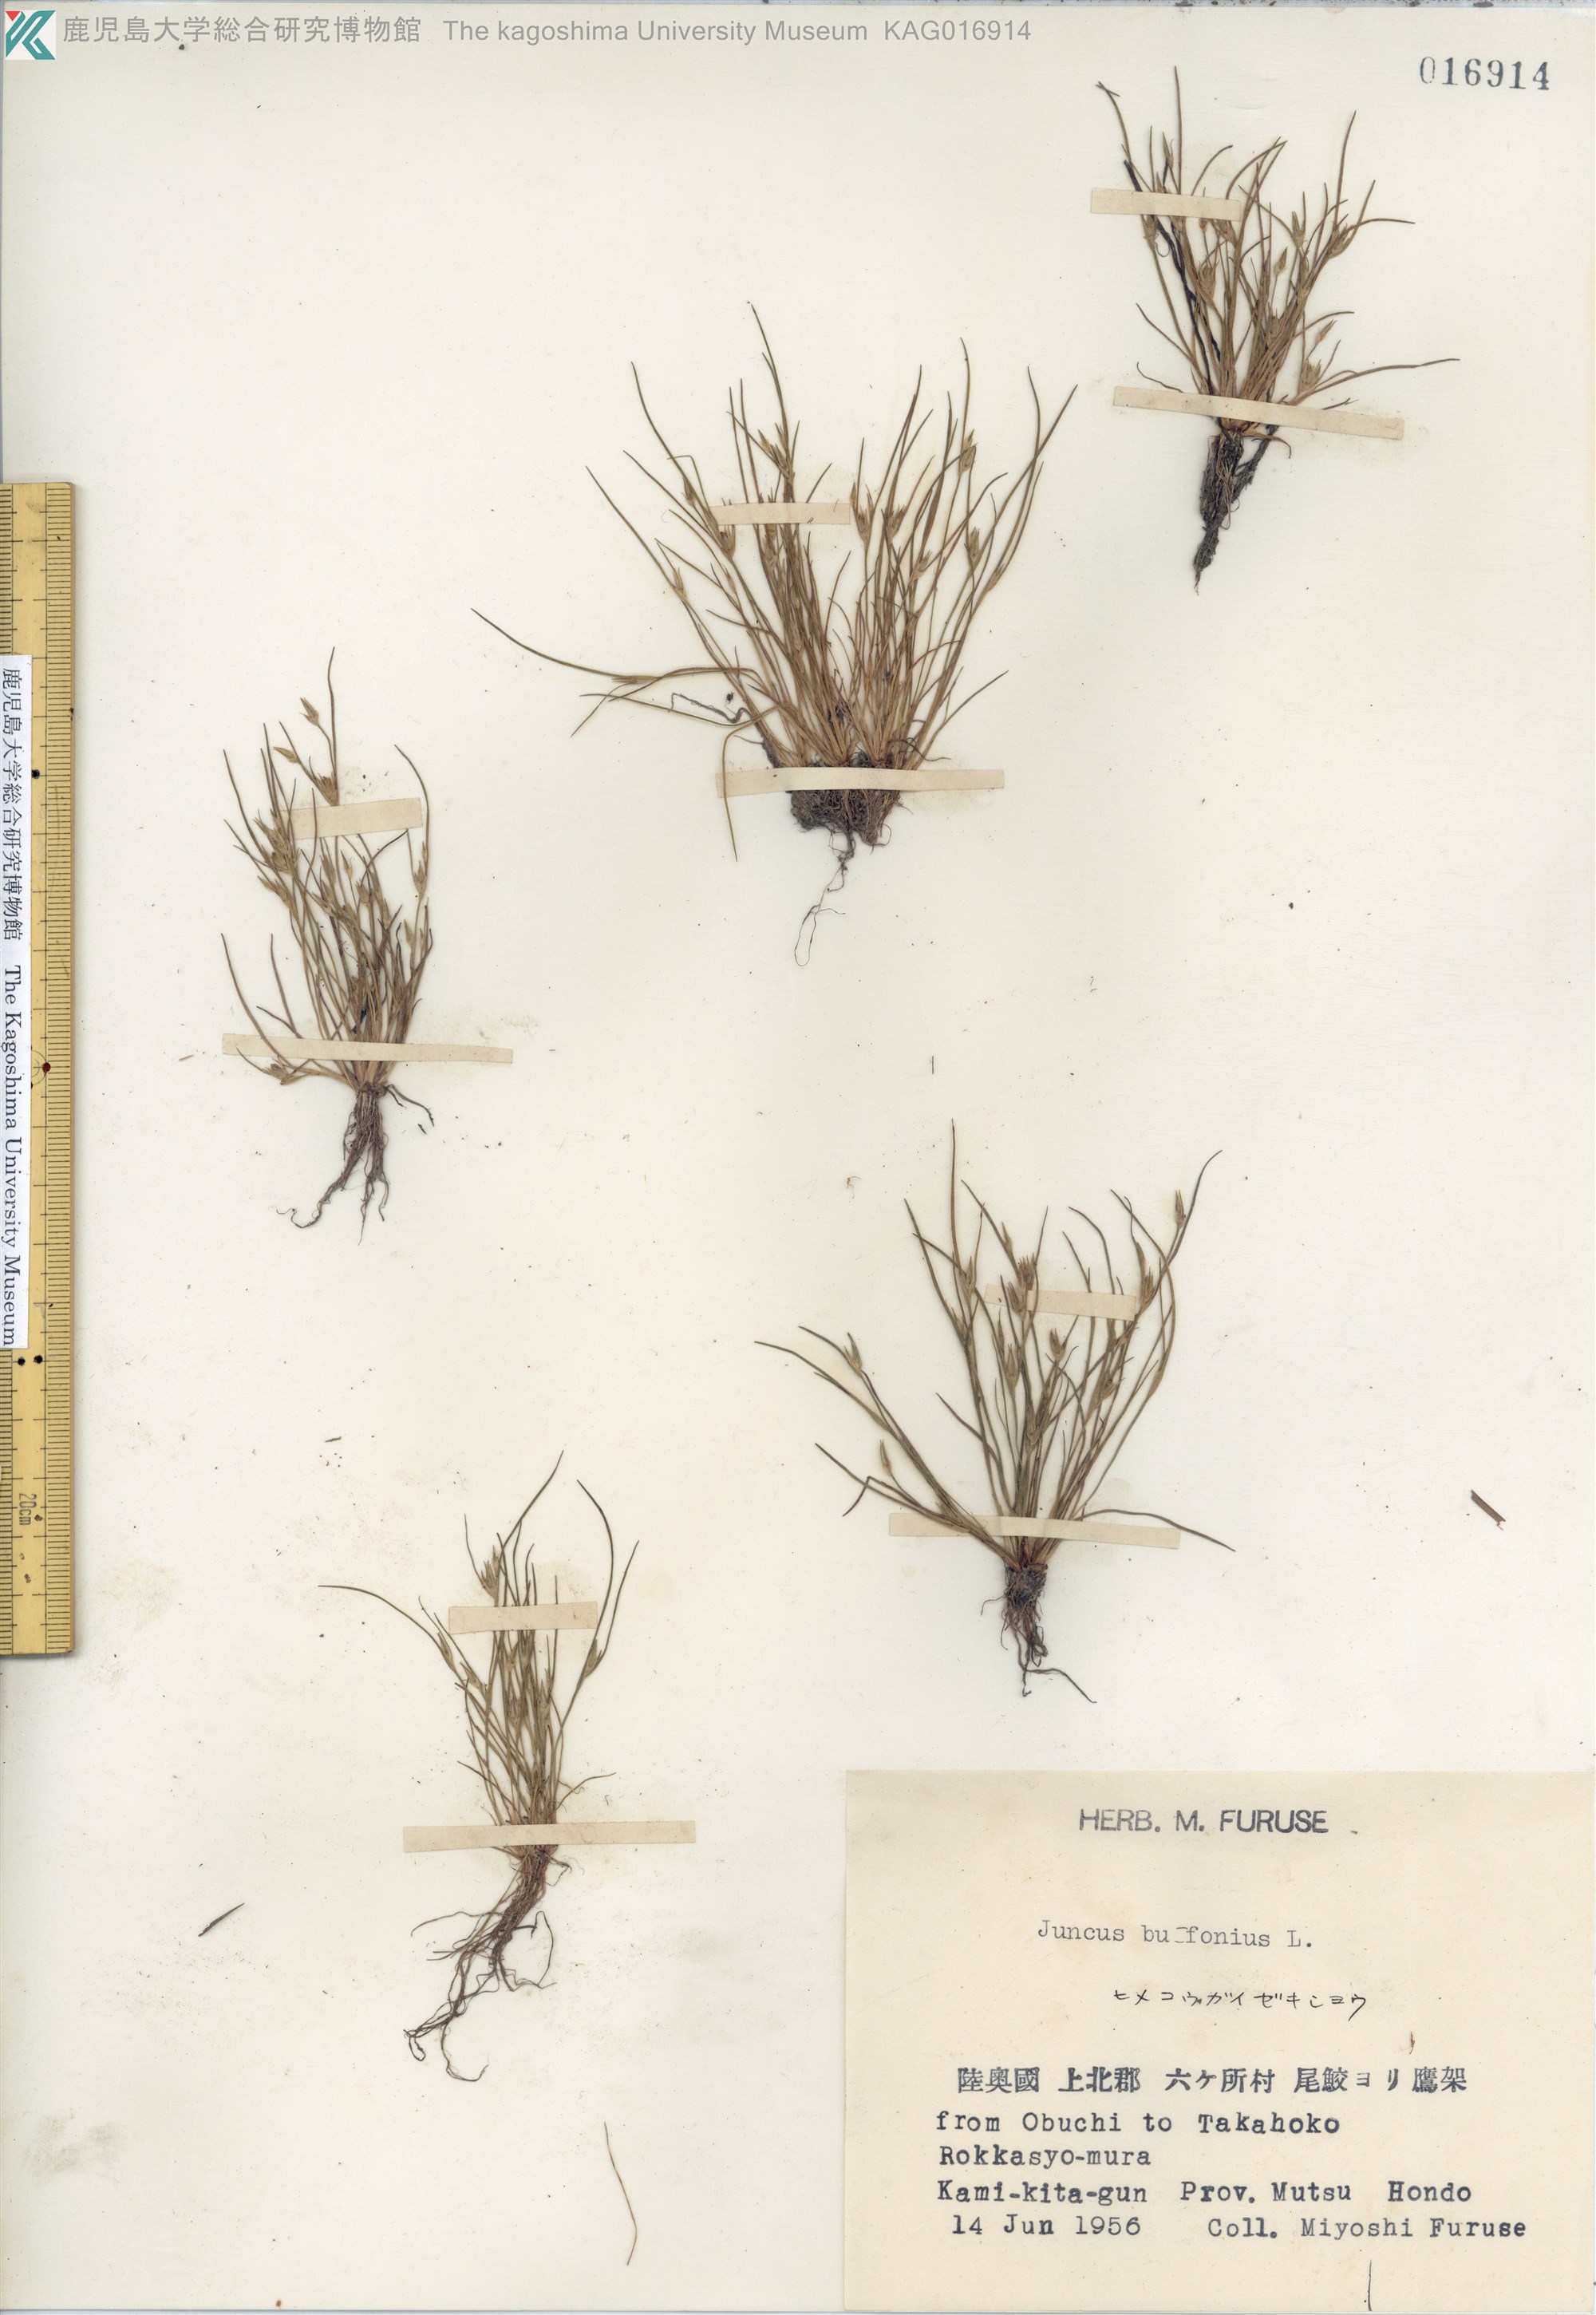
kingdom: Plantae
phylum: Tracheophyta
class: Liliopsida
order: Poales
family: Juncaceae
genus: Juncus
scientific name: Juncus bufonius
